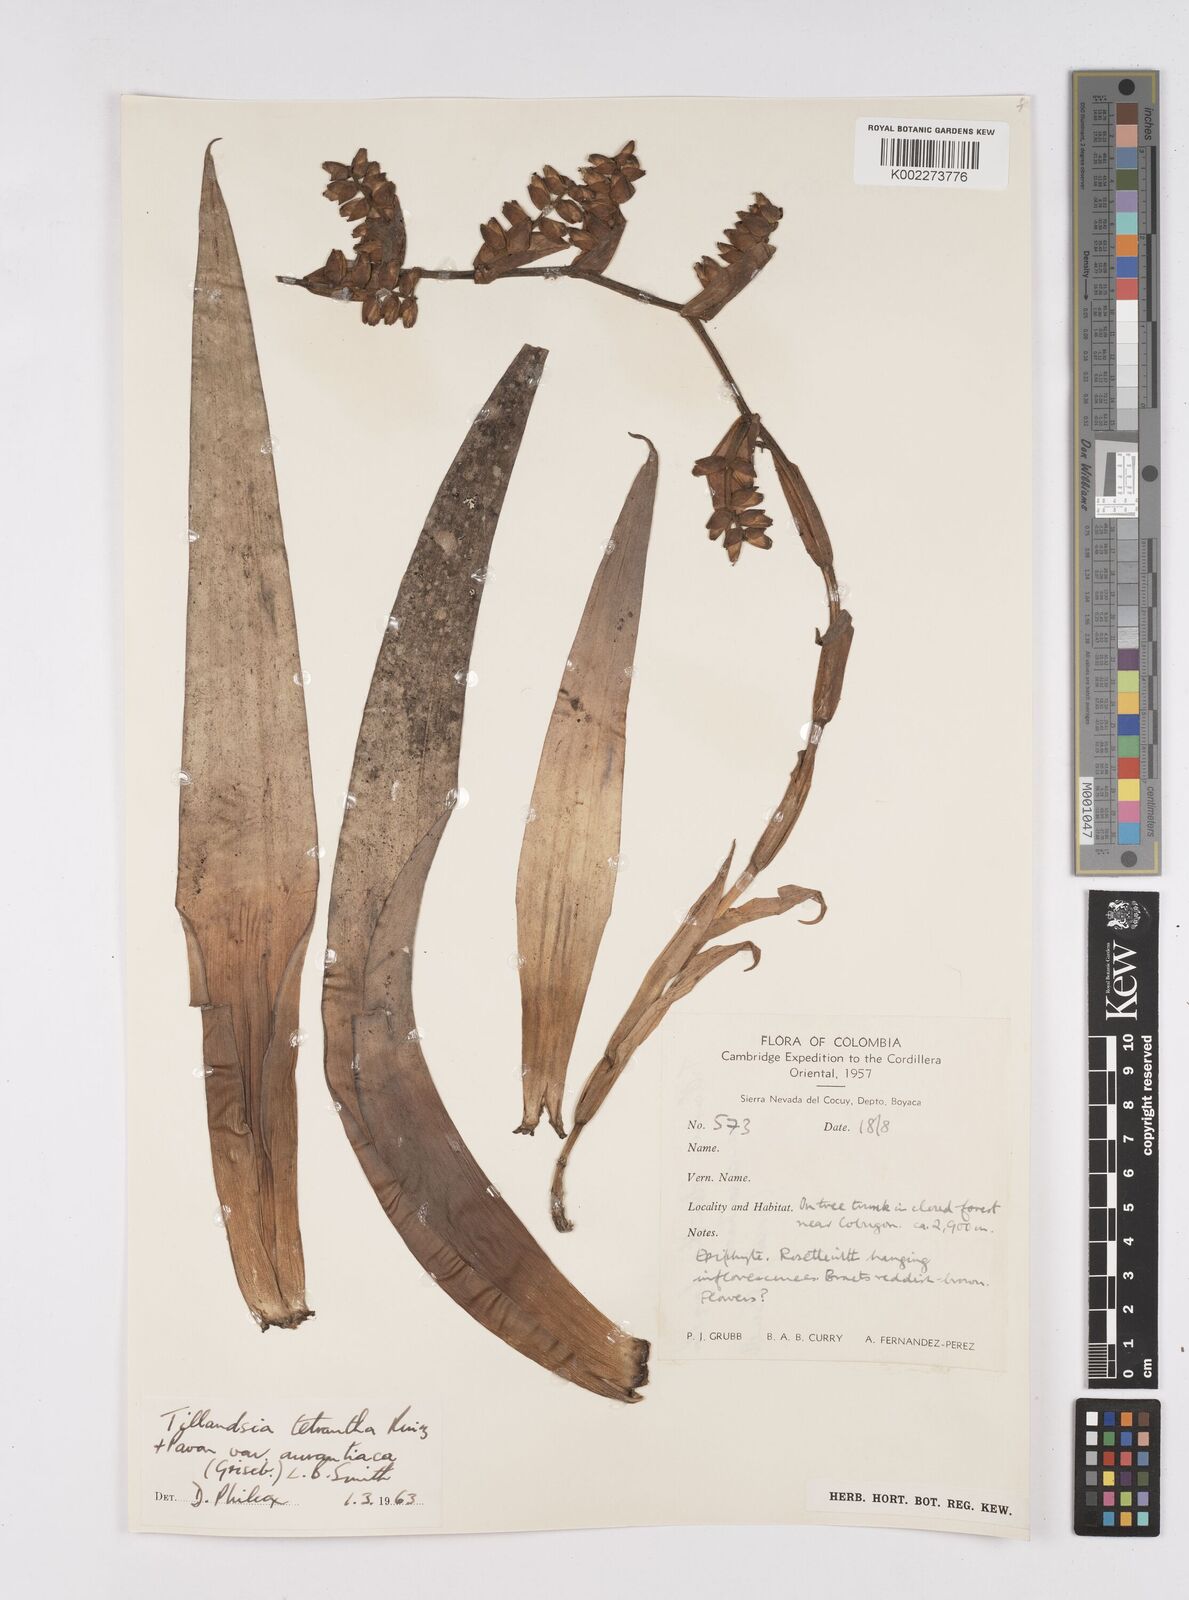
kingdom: Plantae
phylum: Tracheophyta
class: Liliopsida
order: Poales
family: Bromeliaceae
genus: Racinaea
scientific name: Racinaea tetrantha
